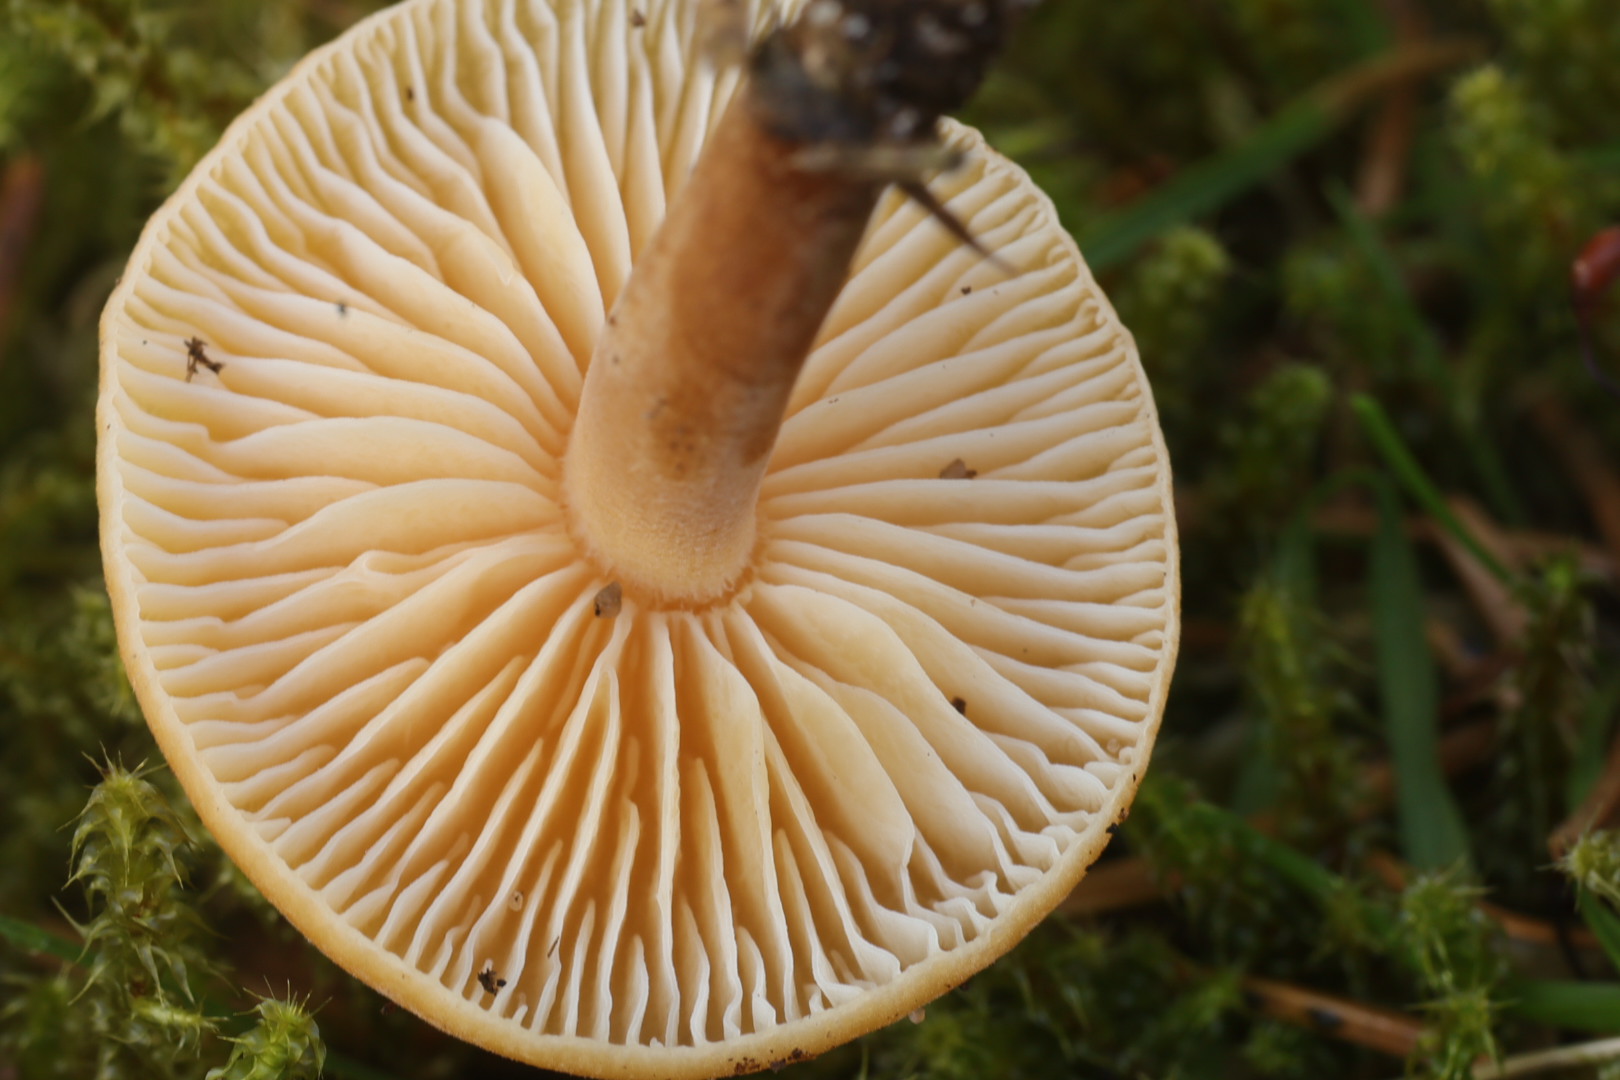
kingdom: Fungi
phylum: Basidiomycota
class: Agaricomycetes
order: Agaricales
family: Physalacriaceae
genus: Flammulina
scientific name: Flammulina
